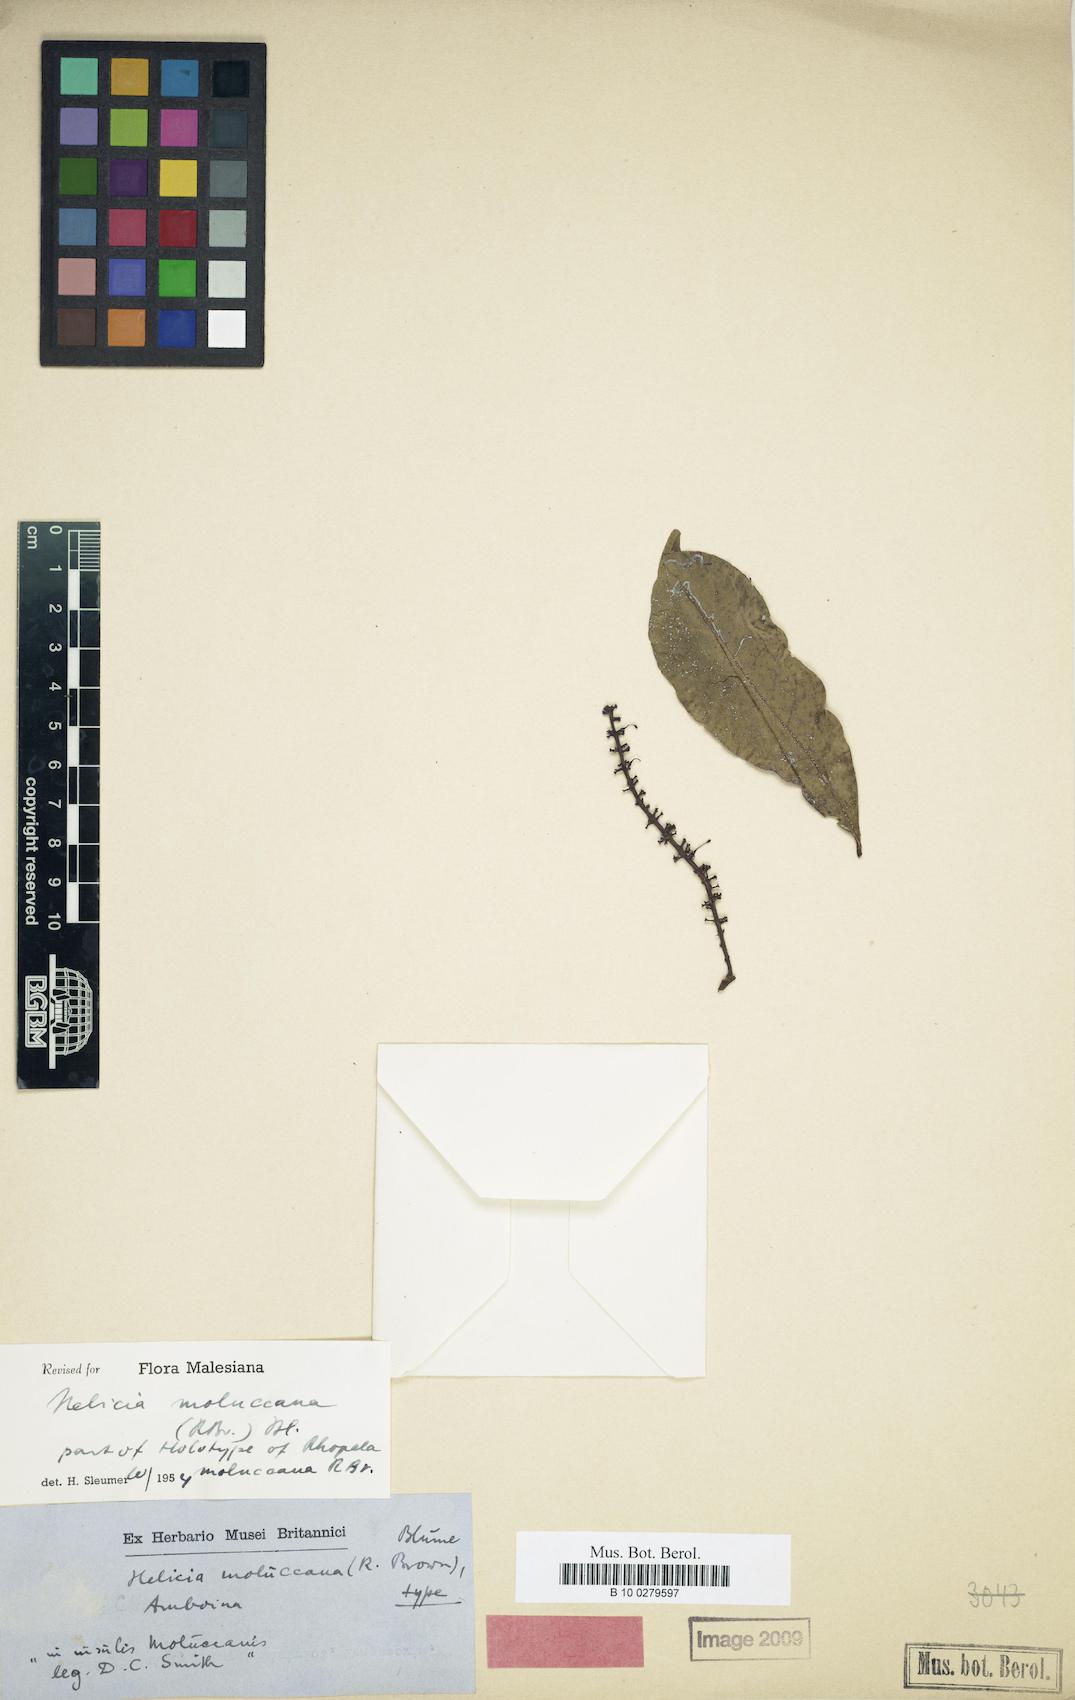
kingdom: Plantae
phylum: Tracheophyta
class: Magnoliopsida
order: Proteales
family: Proteaceae
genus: Helicia
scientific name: Helicia moluccana
